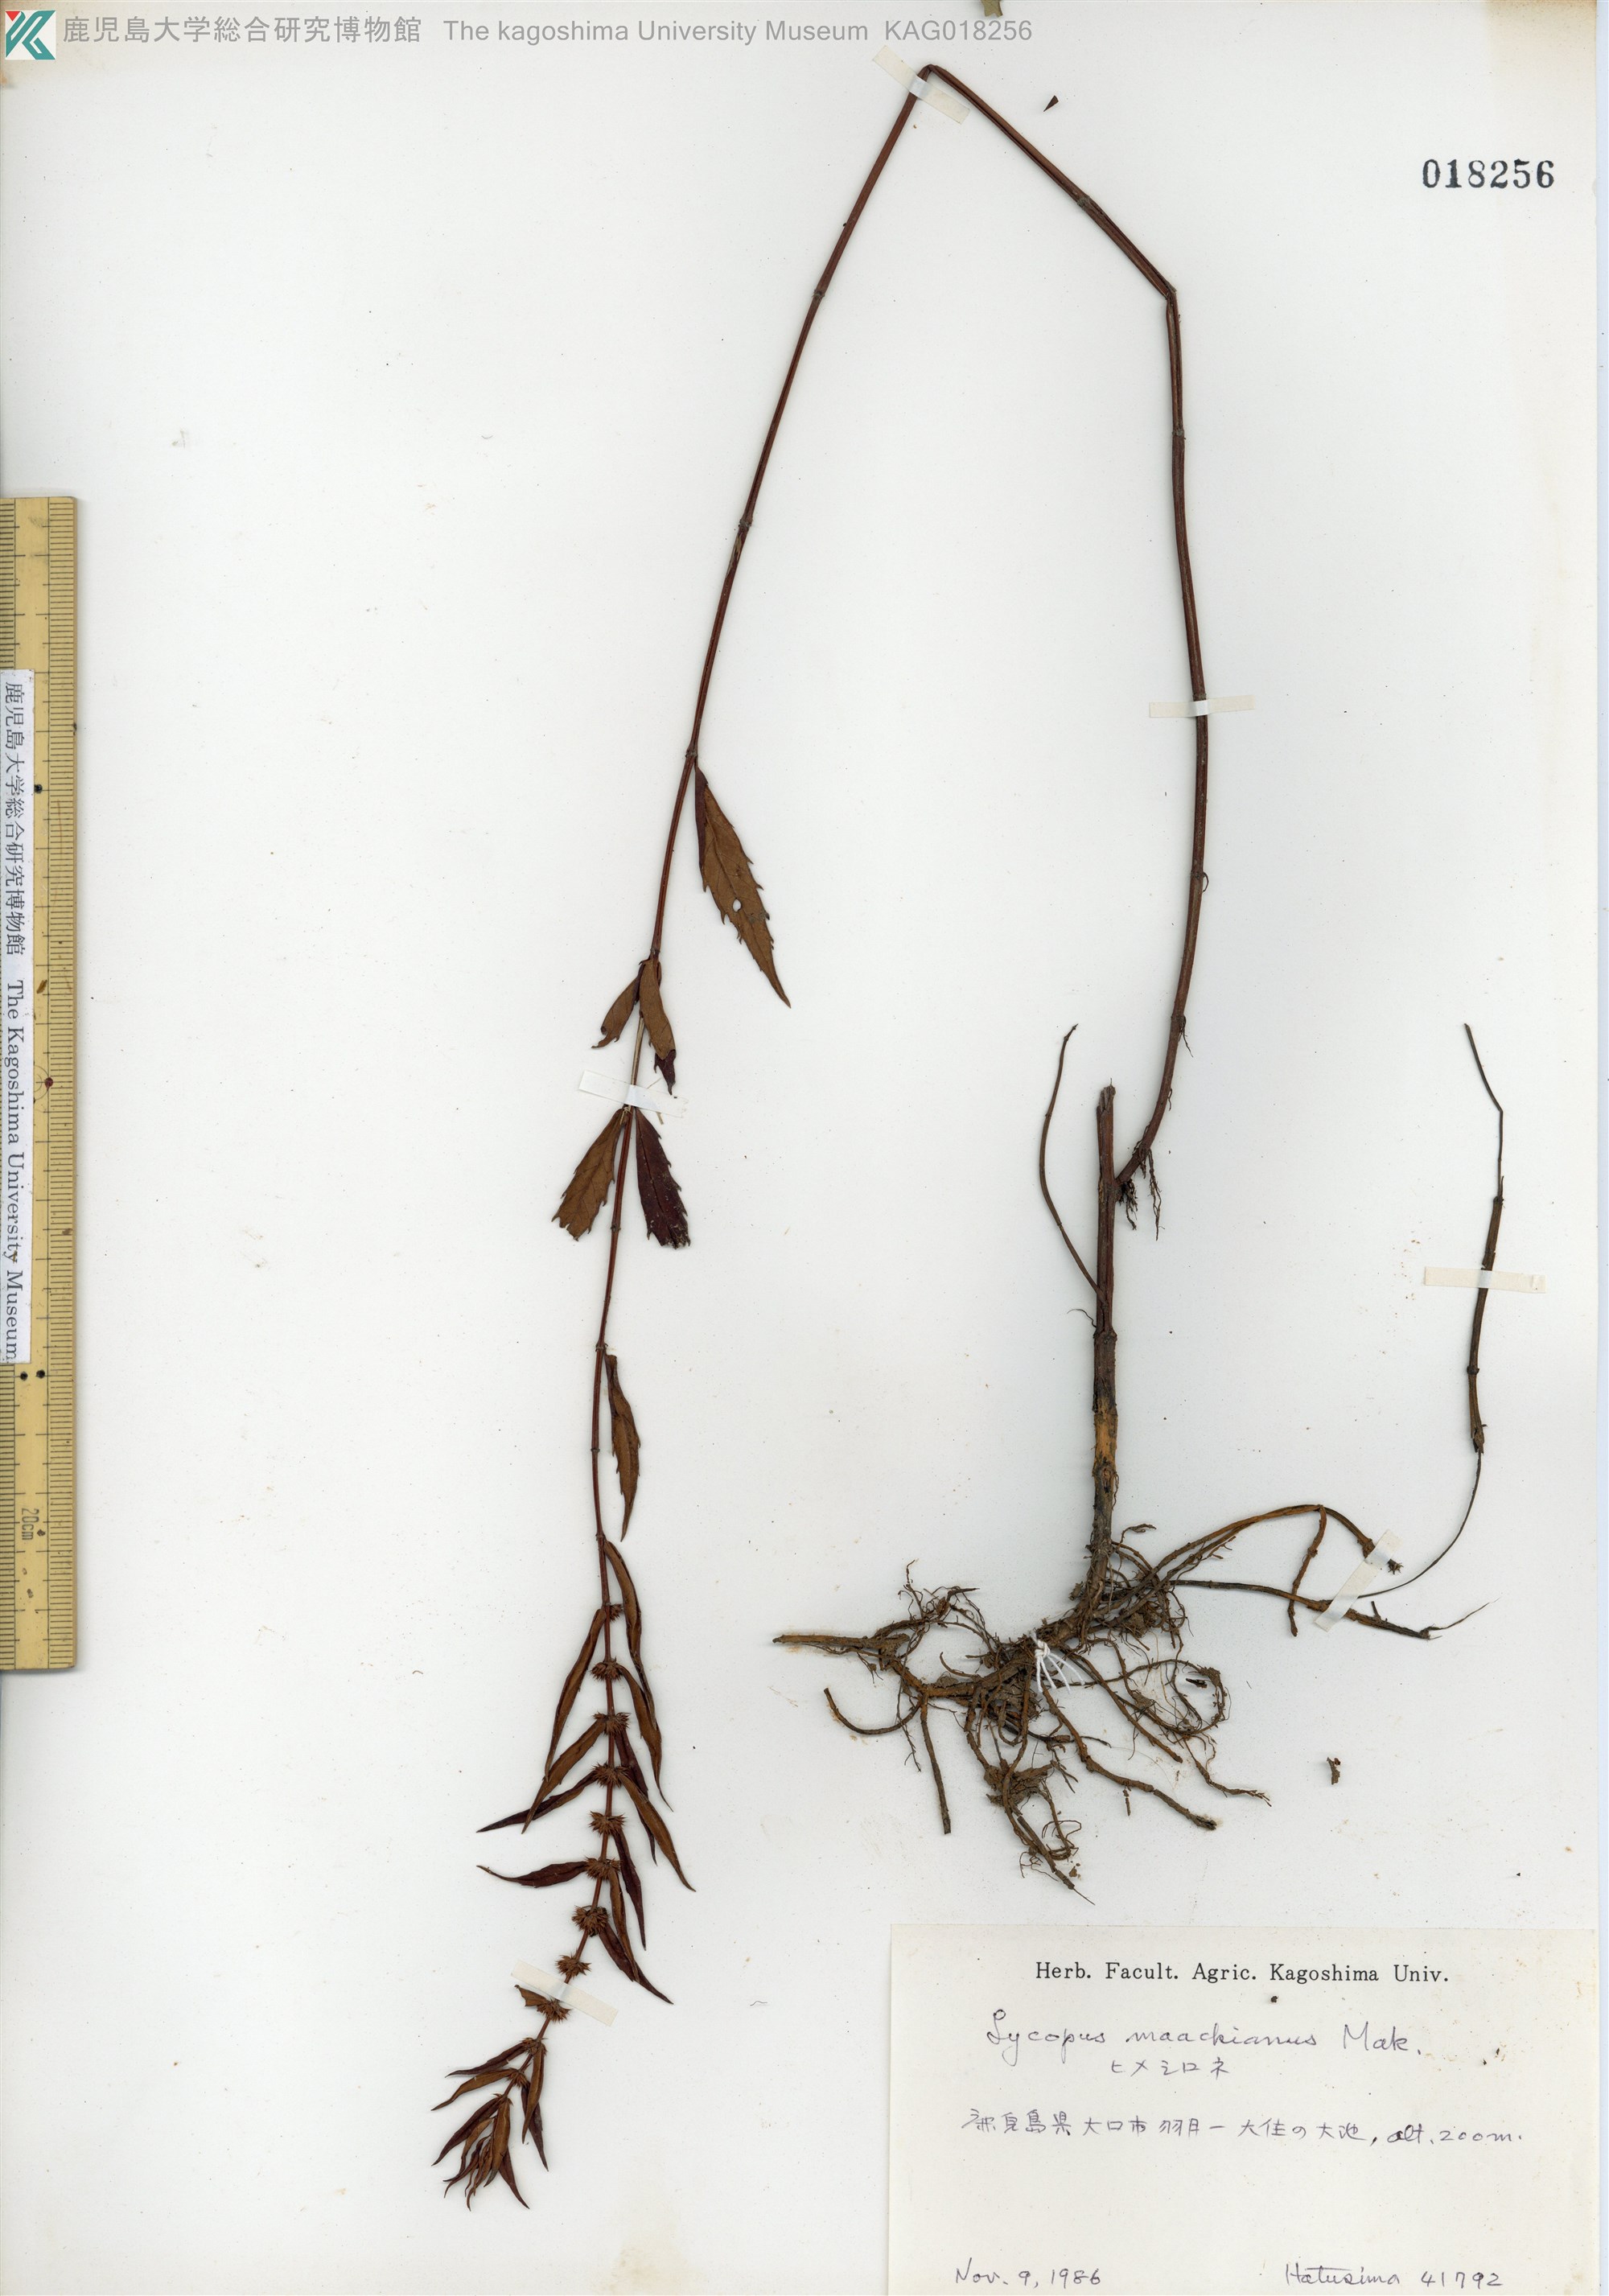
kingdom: Plantae
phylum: Tracheophyta
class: Magnoliopsida
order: Lamiales
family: Lamiaceae
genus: Lycopus
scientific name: Lycopus lucidus
